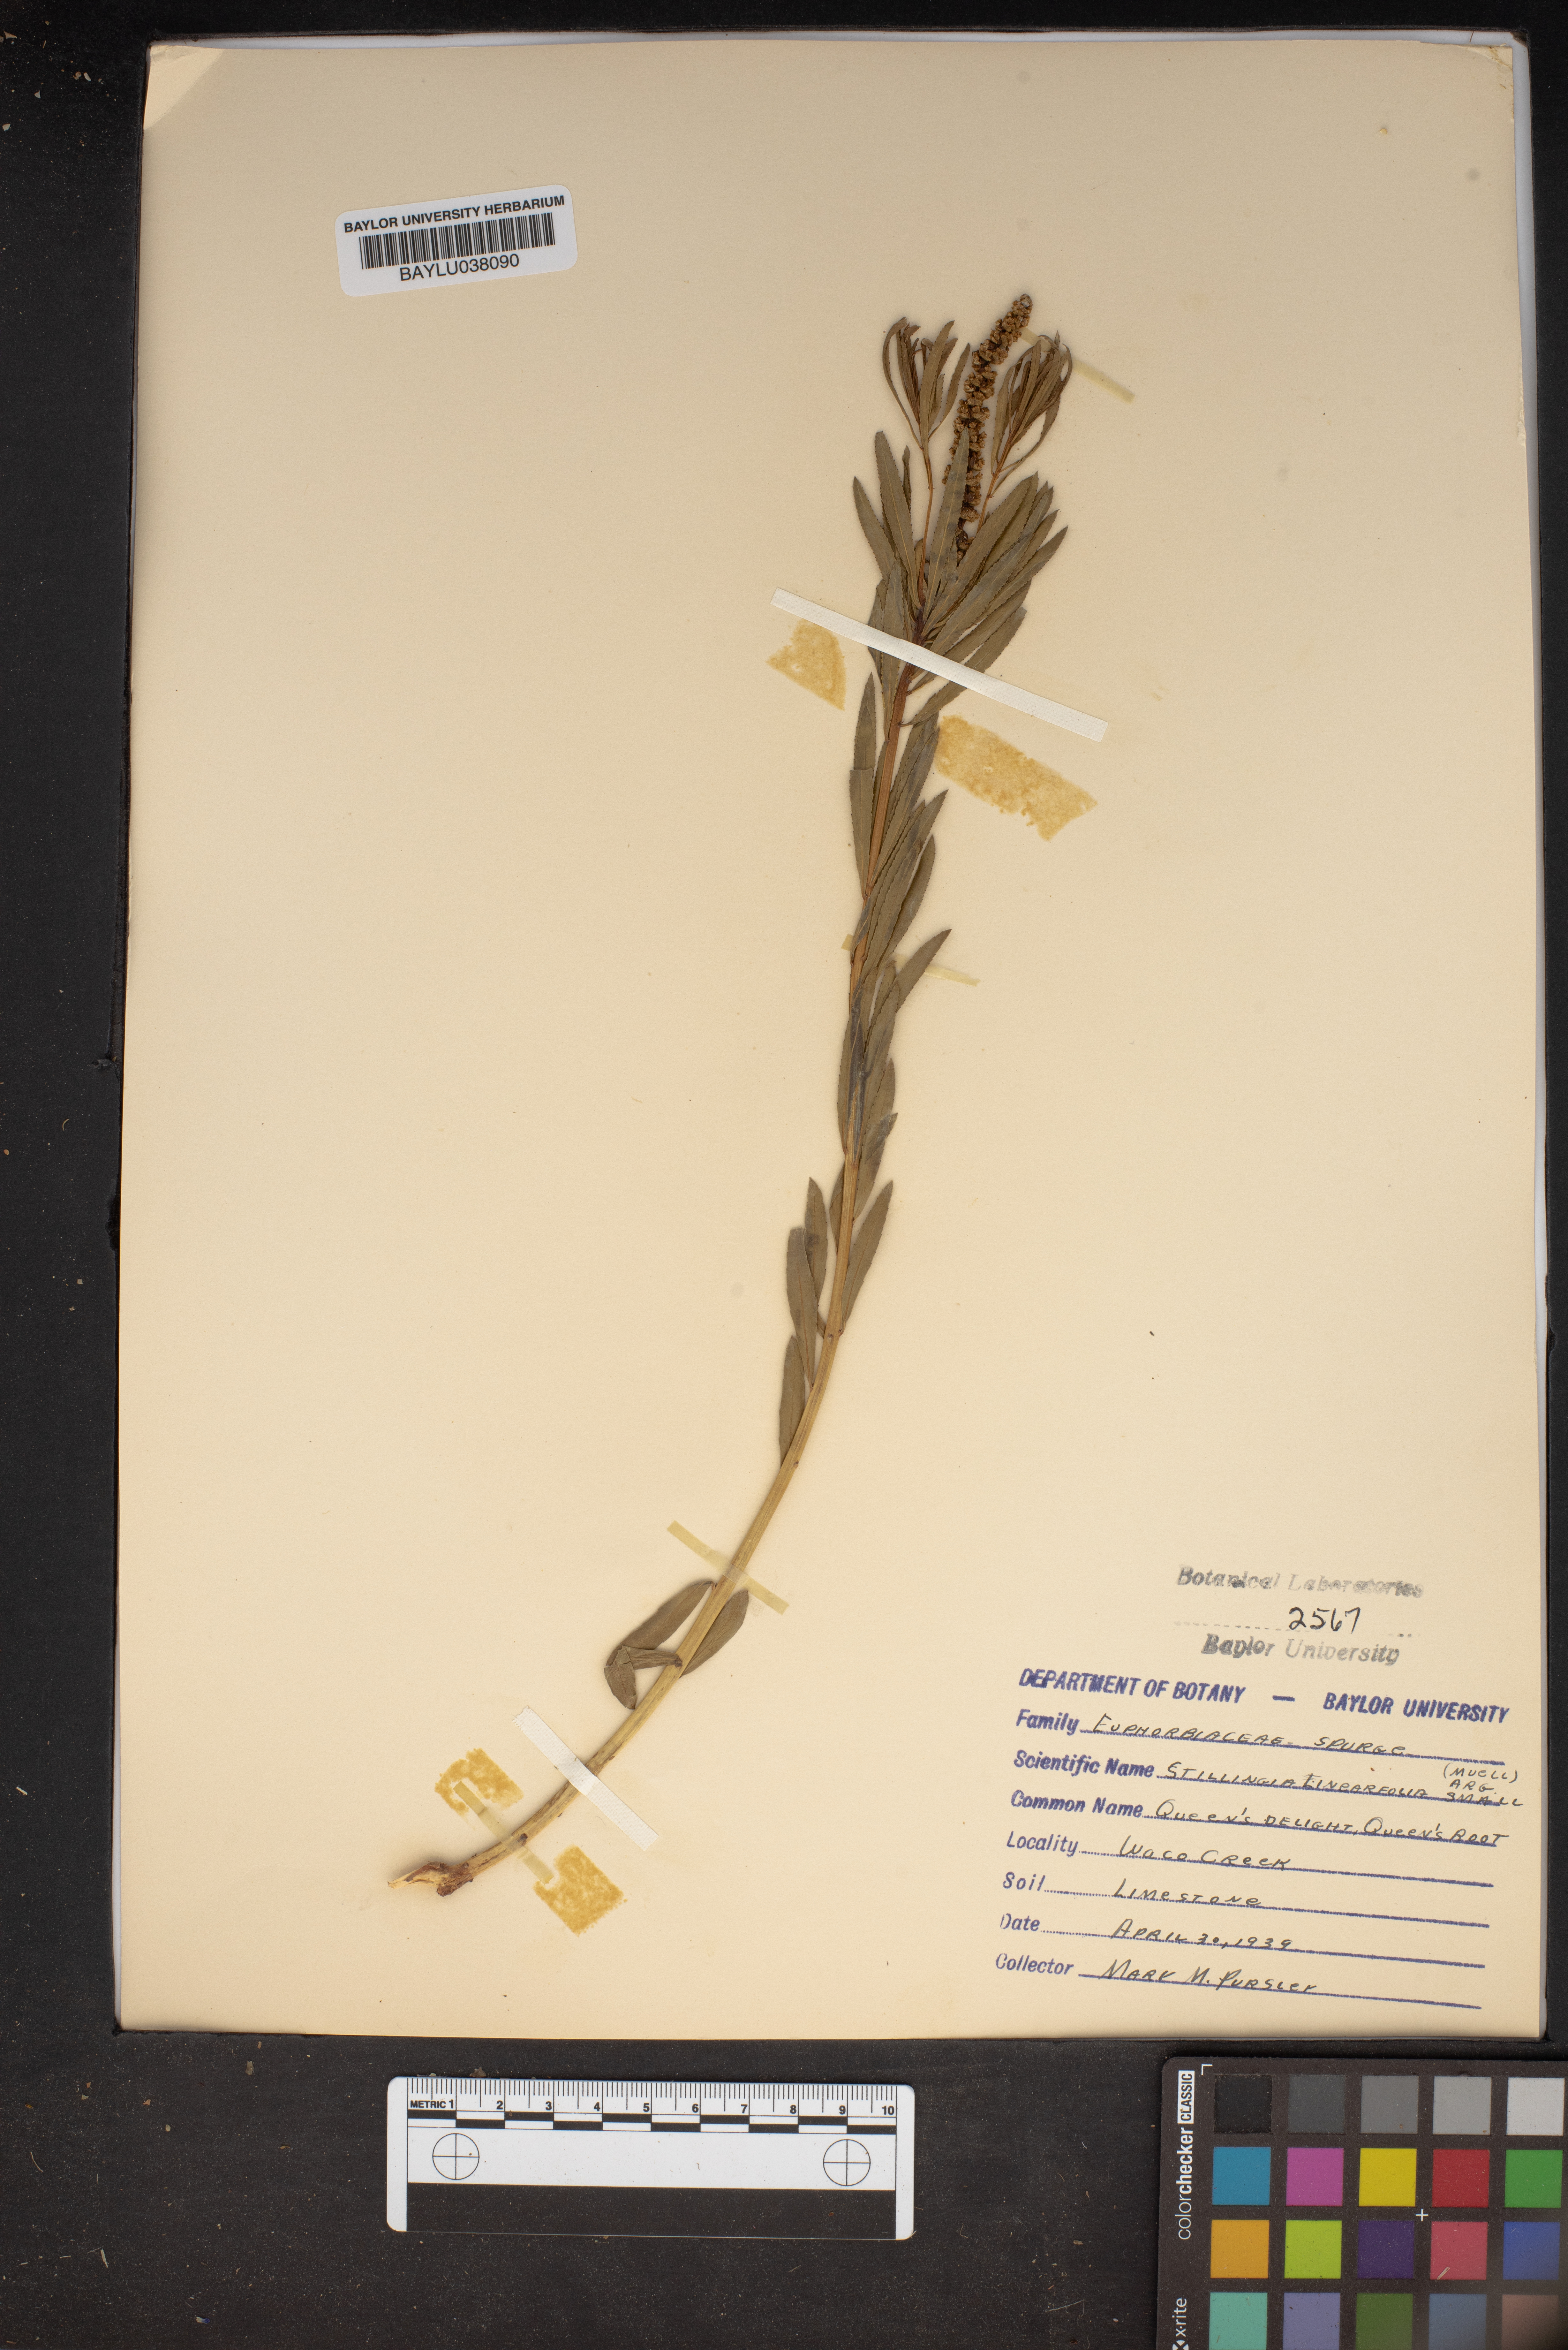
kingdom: Plantae
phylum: Tracheophyta
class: Magnoliopsida
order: Malpighiales
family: Euphorbiaceae
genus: Stillingia
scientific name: Stillingia linearifolia
